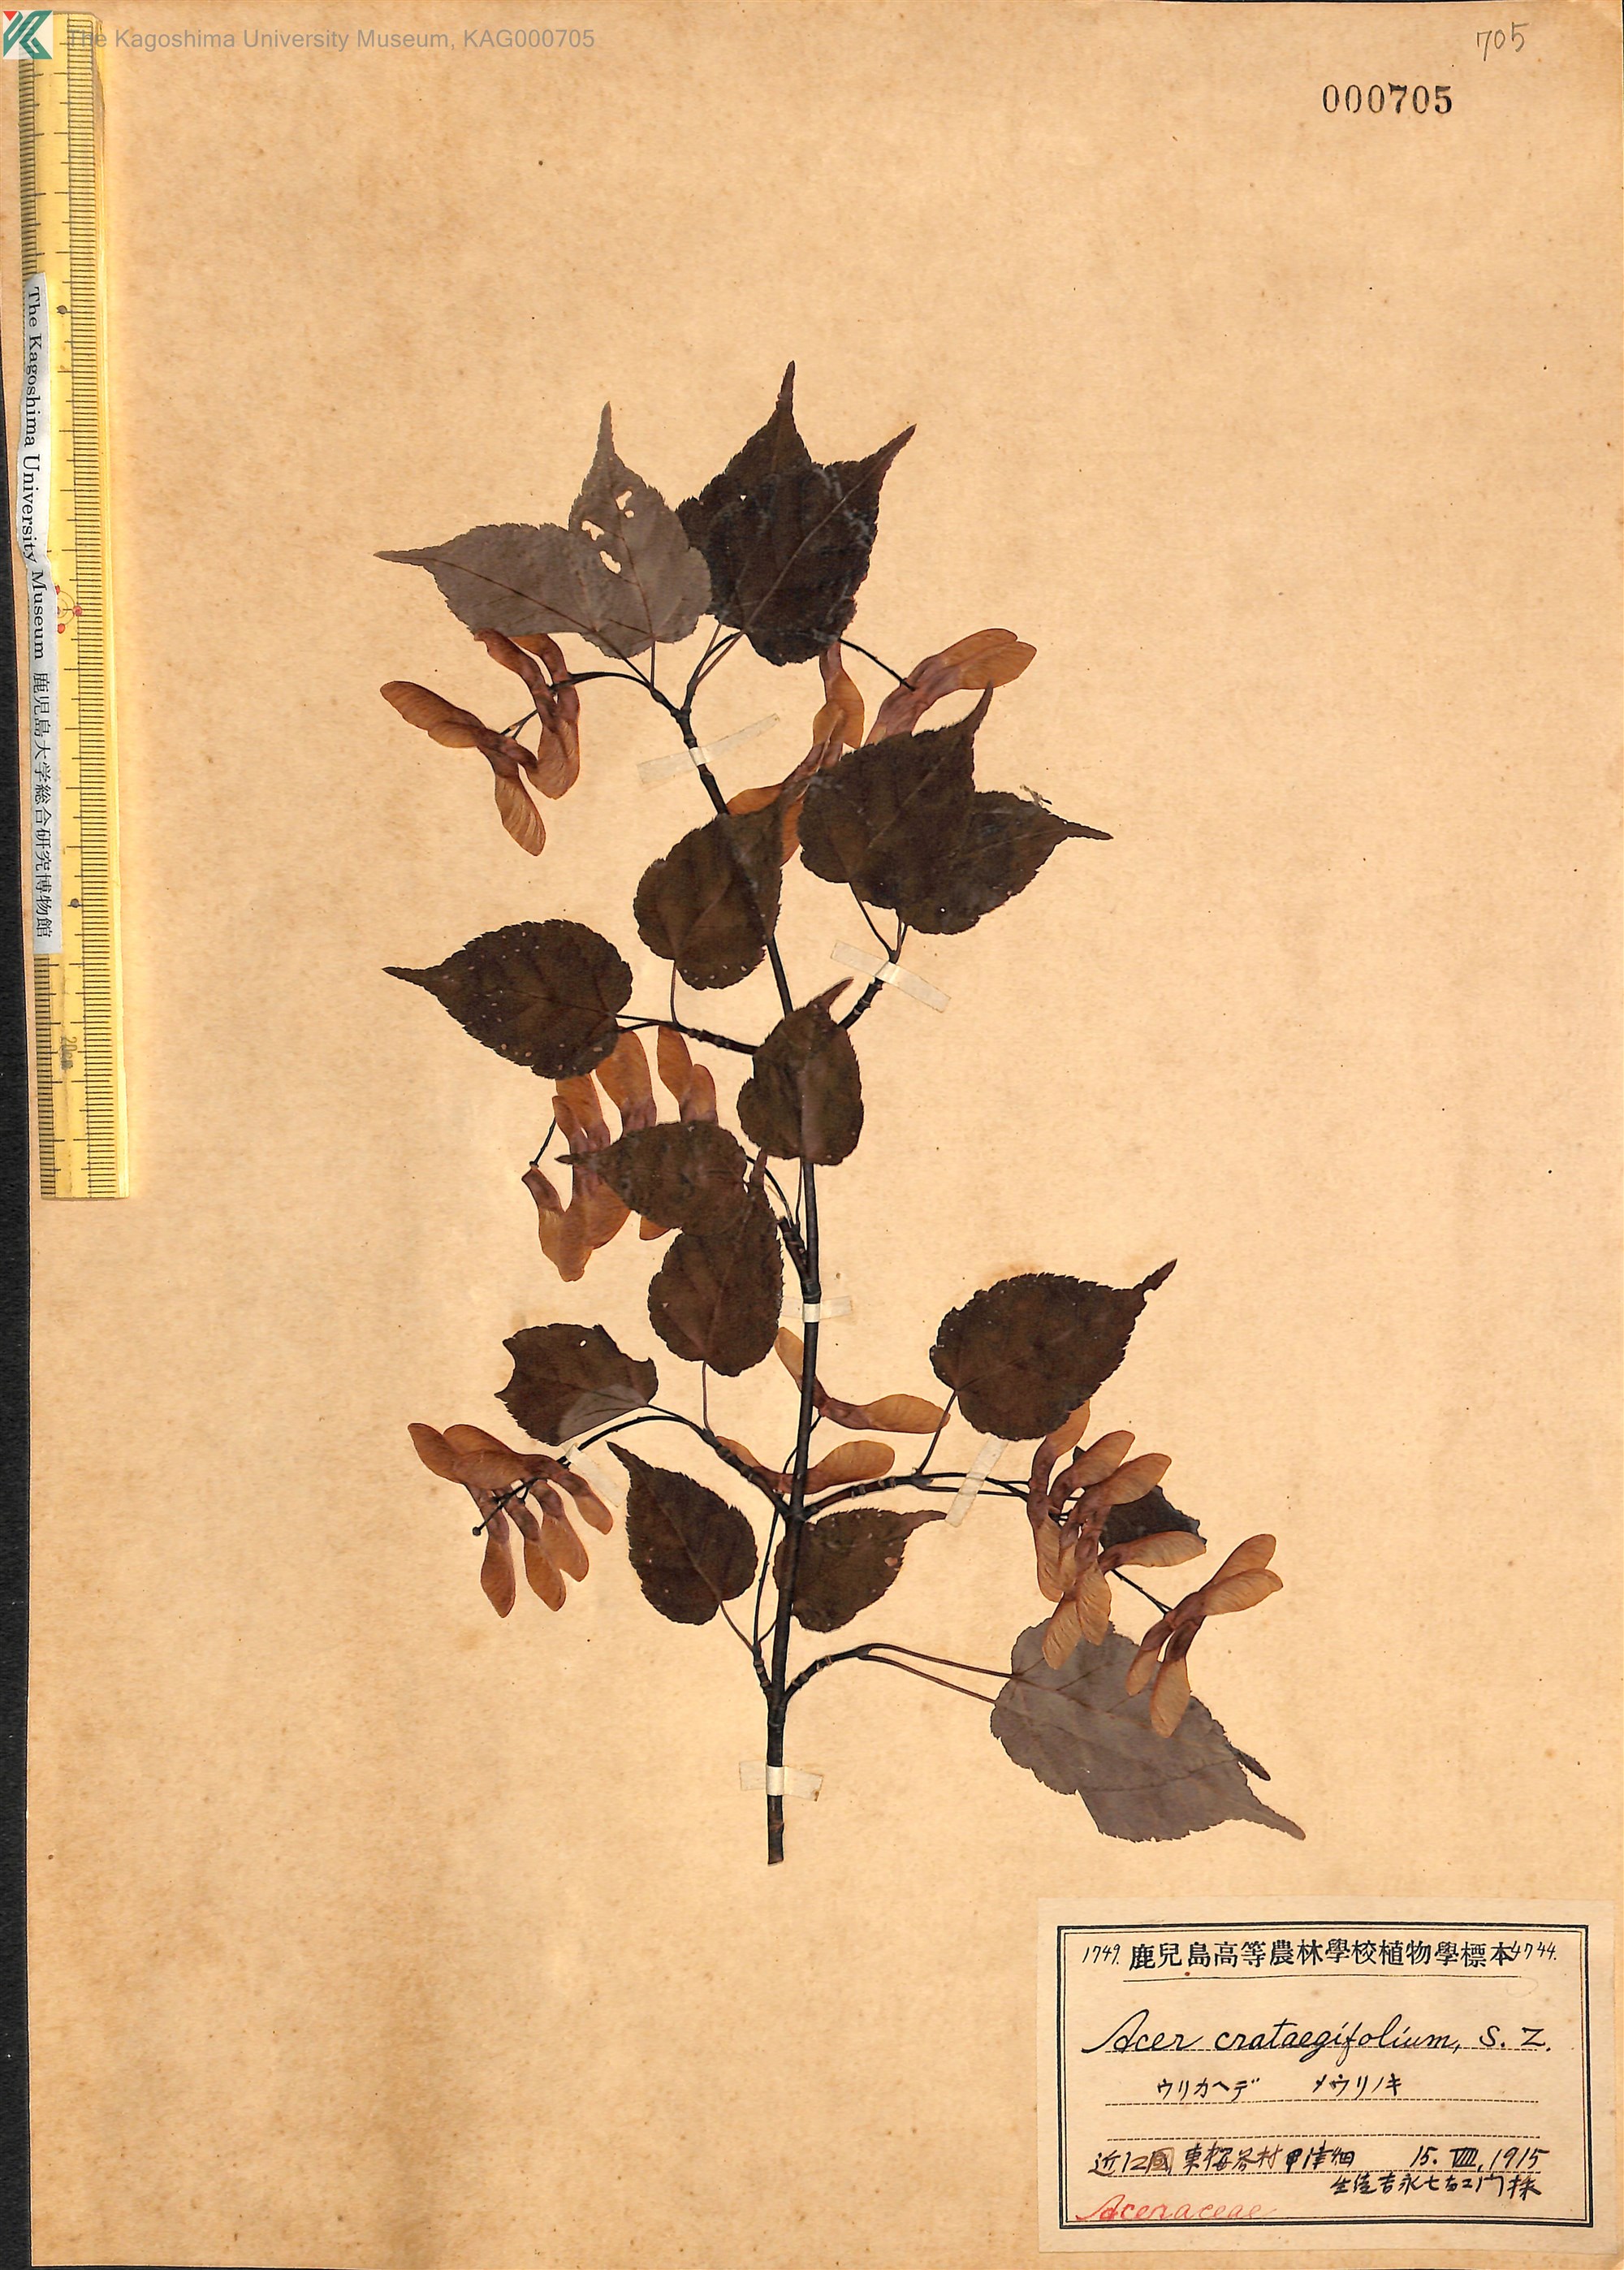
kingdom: Plantae
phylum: Tracheophyta
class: Magnoliopsida
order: Sapindales
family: Sapindaceae
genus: Acer
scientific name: Acer crataegifolium
